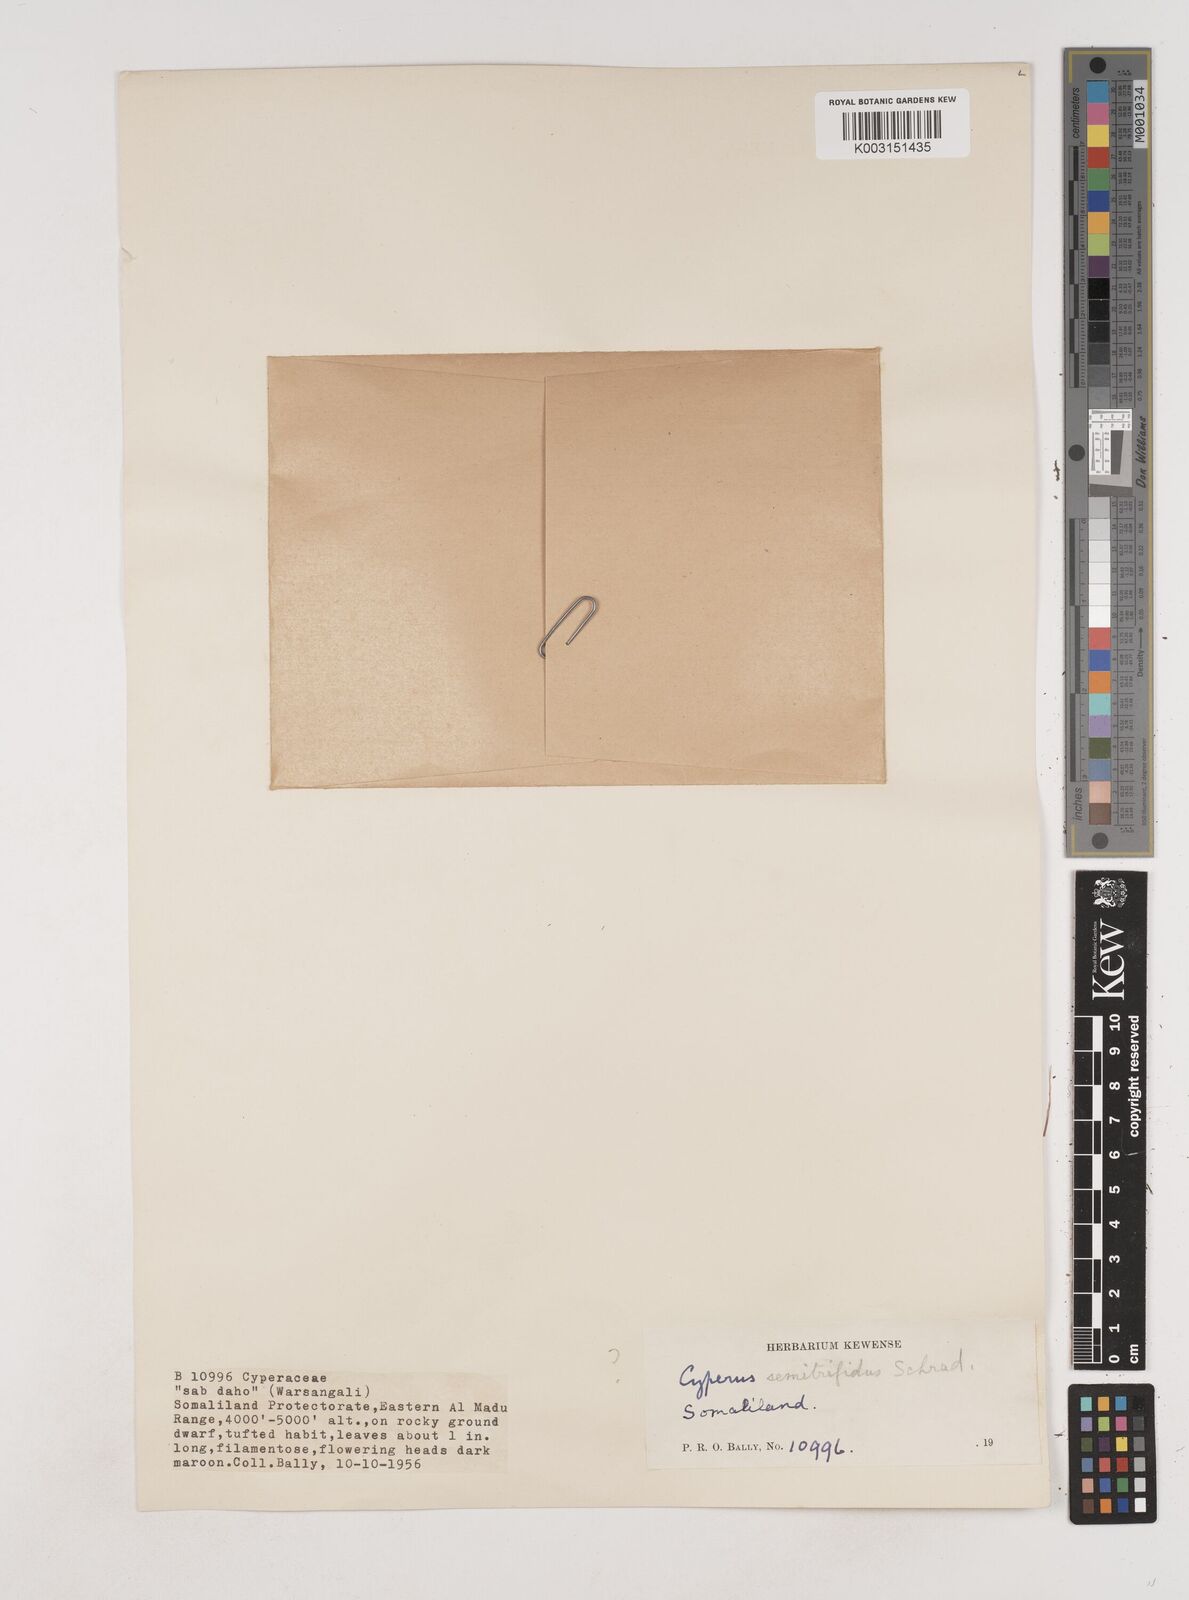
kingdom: Plantae
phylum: Tracheophyta
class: Liliopsida
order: Poales
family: Cyperaceae
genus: Cyperus
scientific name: Cyperus pseudosomaliensis
